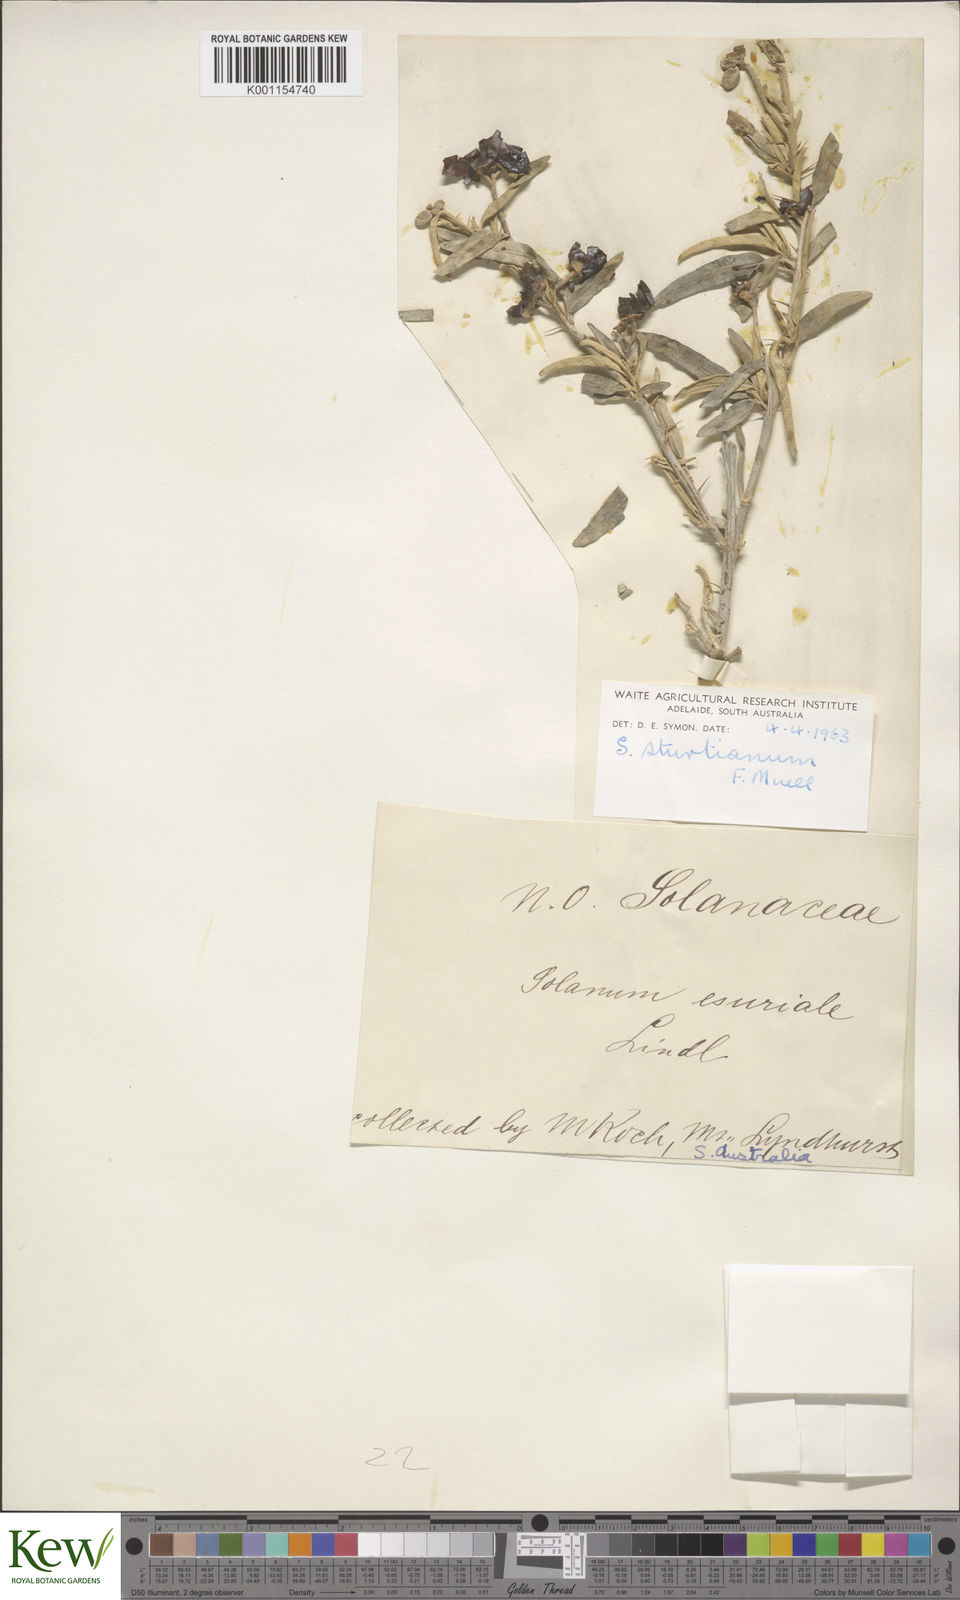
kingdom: Plantae
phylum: Tracheophyta
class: Magnoliopsida
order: Solanales
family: Solanaceae
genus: Solanum
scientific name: Solanum sturtianum
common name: Thargomindah nightshade
